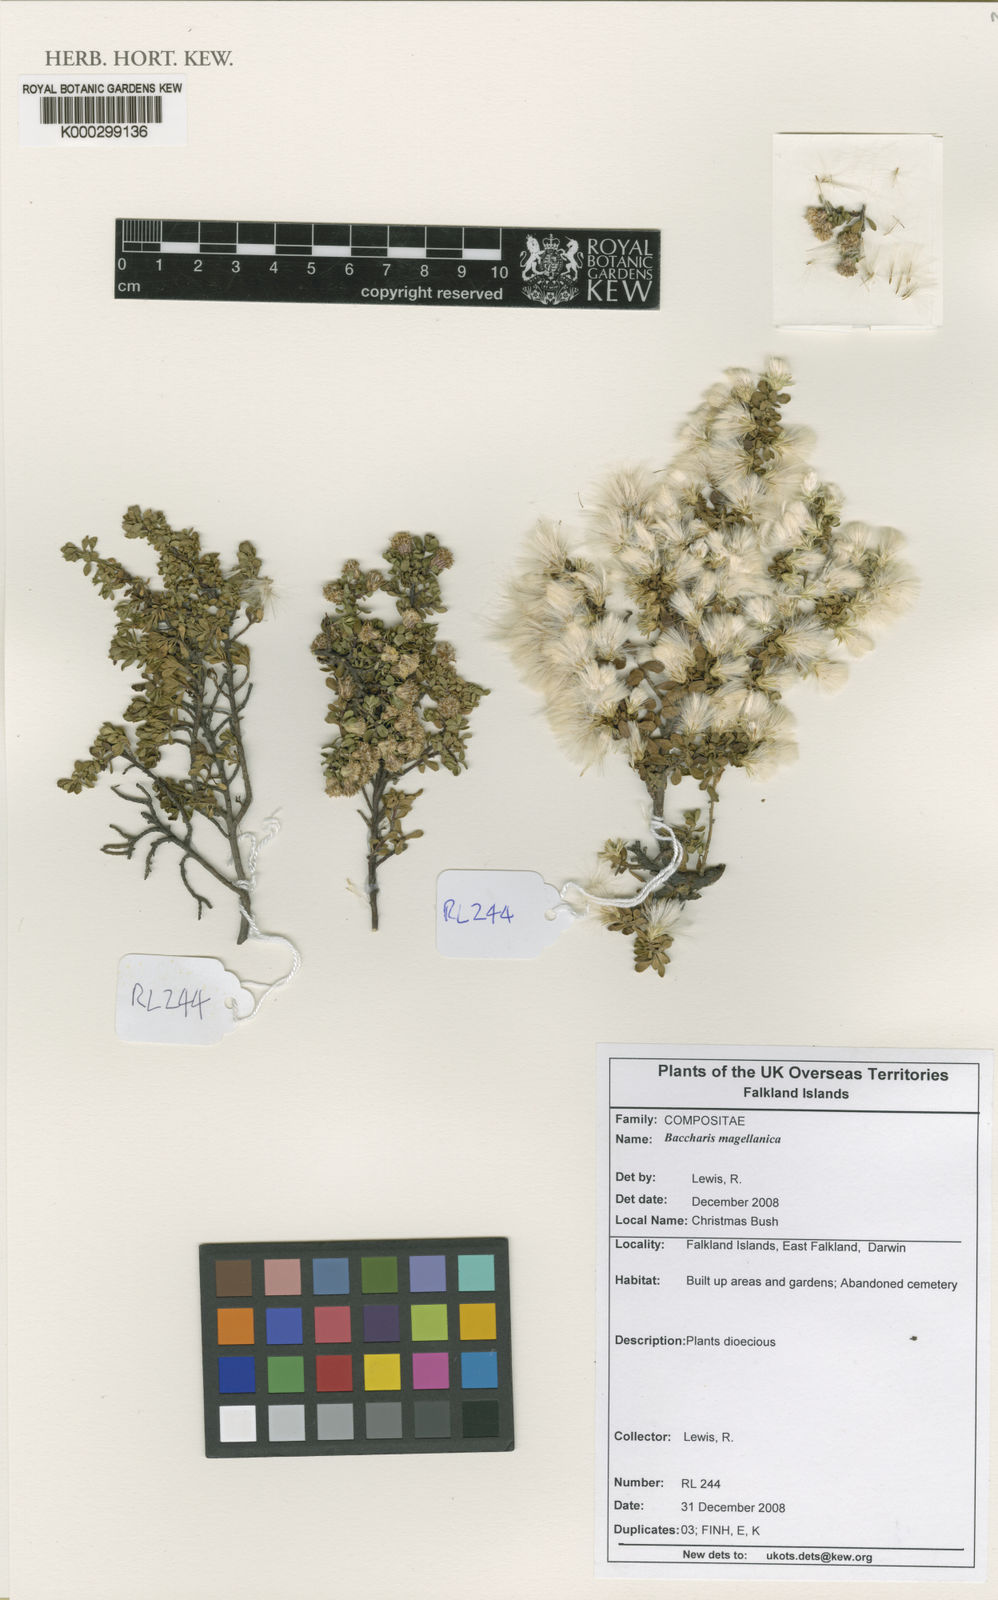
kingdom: Plantae
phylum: Tracheophyta
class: Magnoliopsida
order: Asterales
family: Asteraceae
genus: Baccharis
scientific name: Baccharis tricuneata
